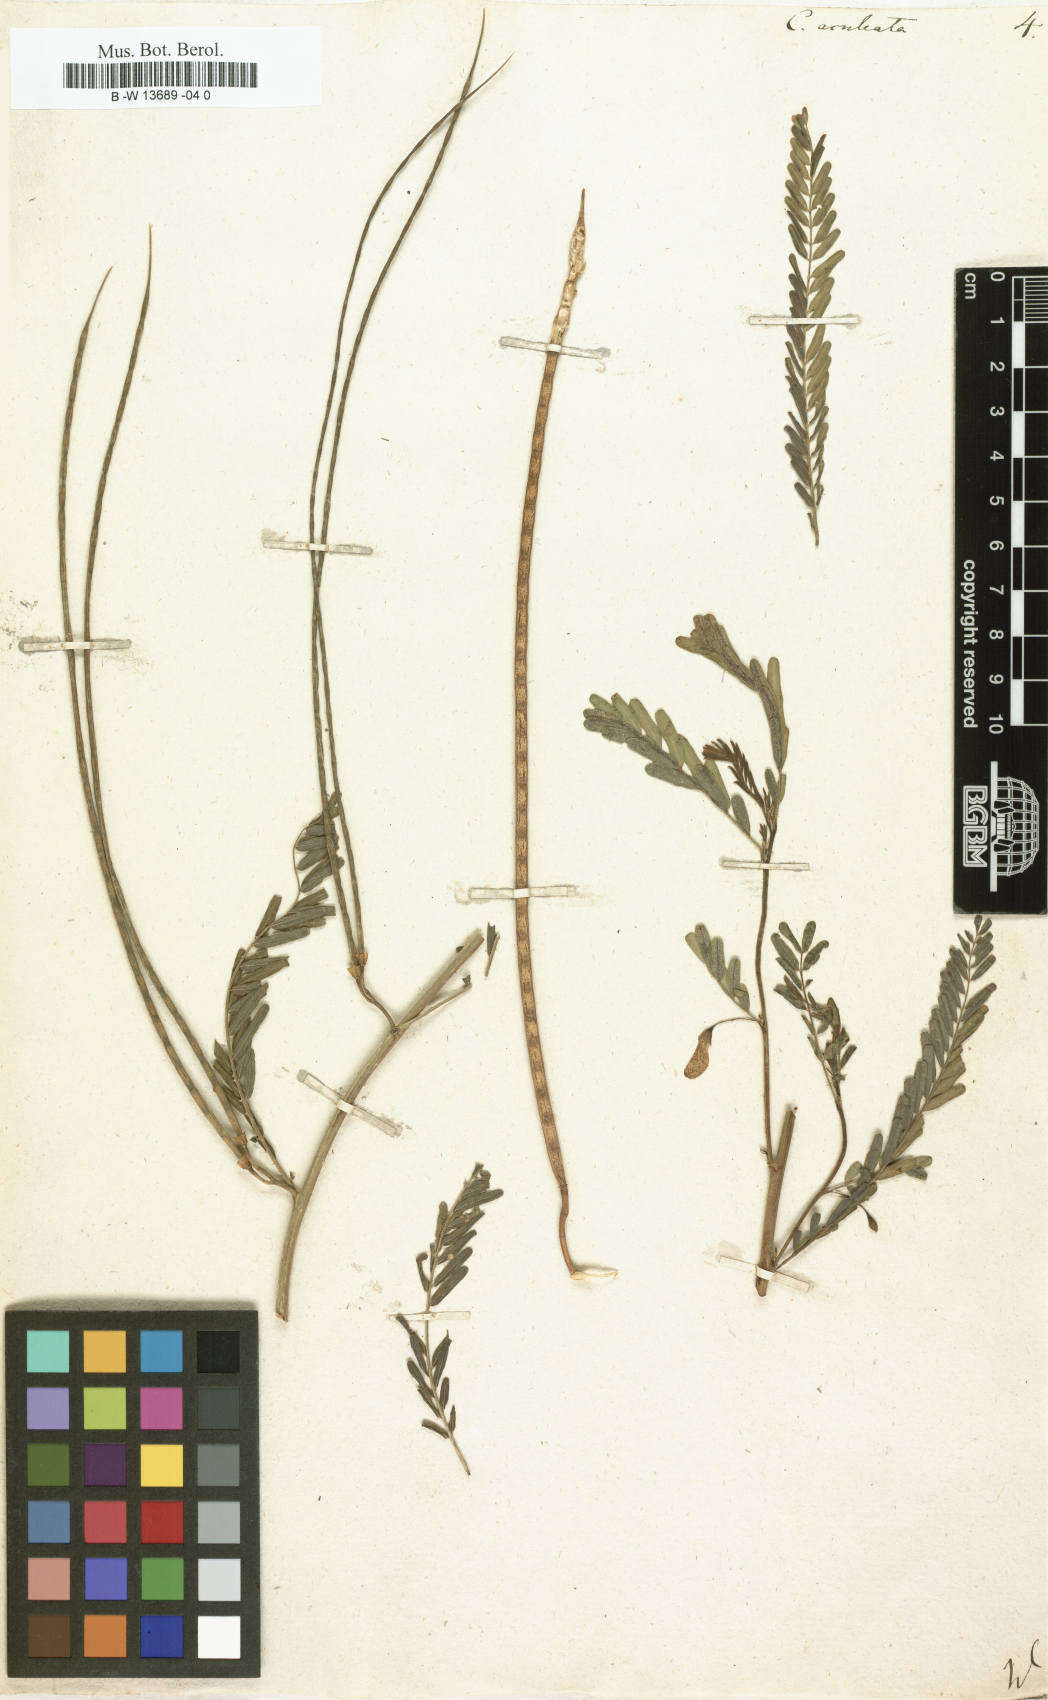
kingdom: Plantae
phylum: Tracheophyta
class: Magnoliopsida
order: Fabales
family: Fabaceae
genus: Sesbania
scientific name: Sesbania bispinosa
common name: Sesbania pea
